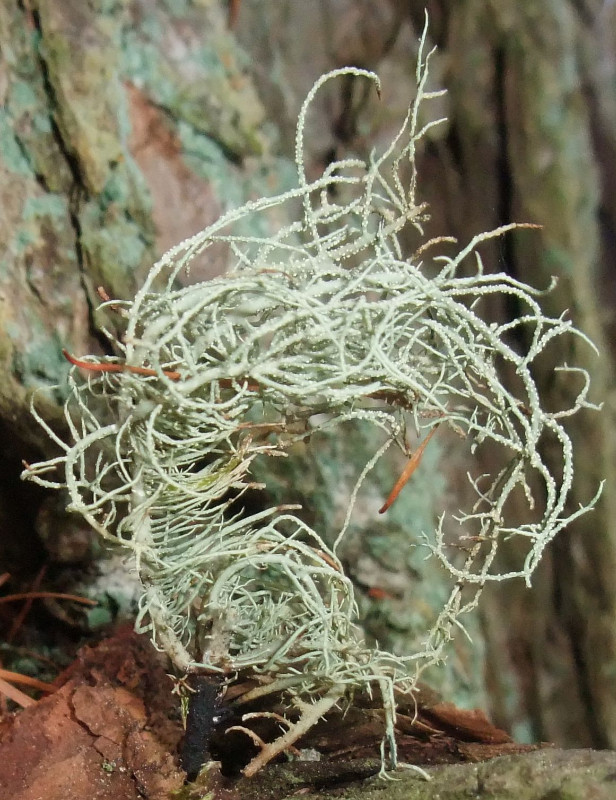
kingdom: Fungi
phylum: Ascomycota
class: Lecanoromycetes
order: Lecanorales
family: Parmeliaceae
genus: Usnea
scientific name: Usnea subfloridana
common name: busket skæglav
